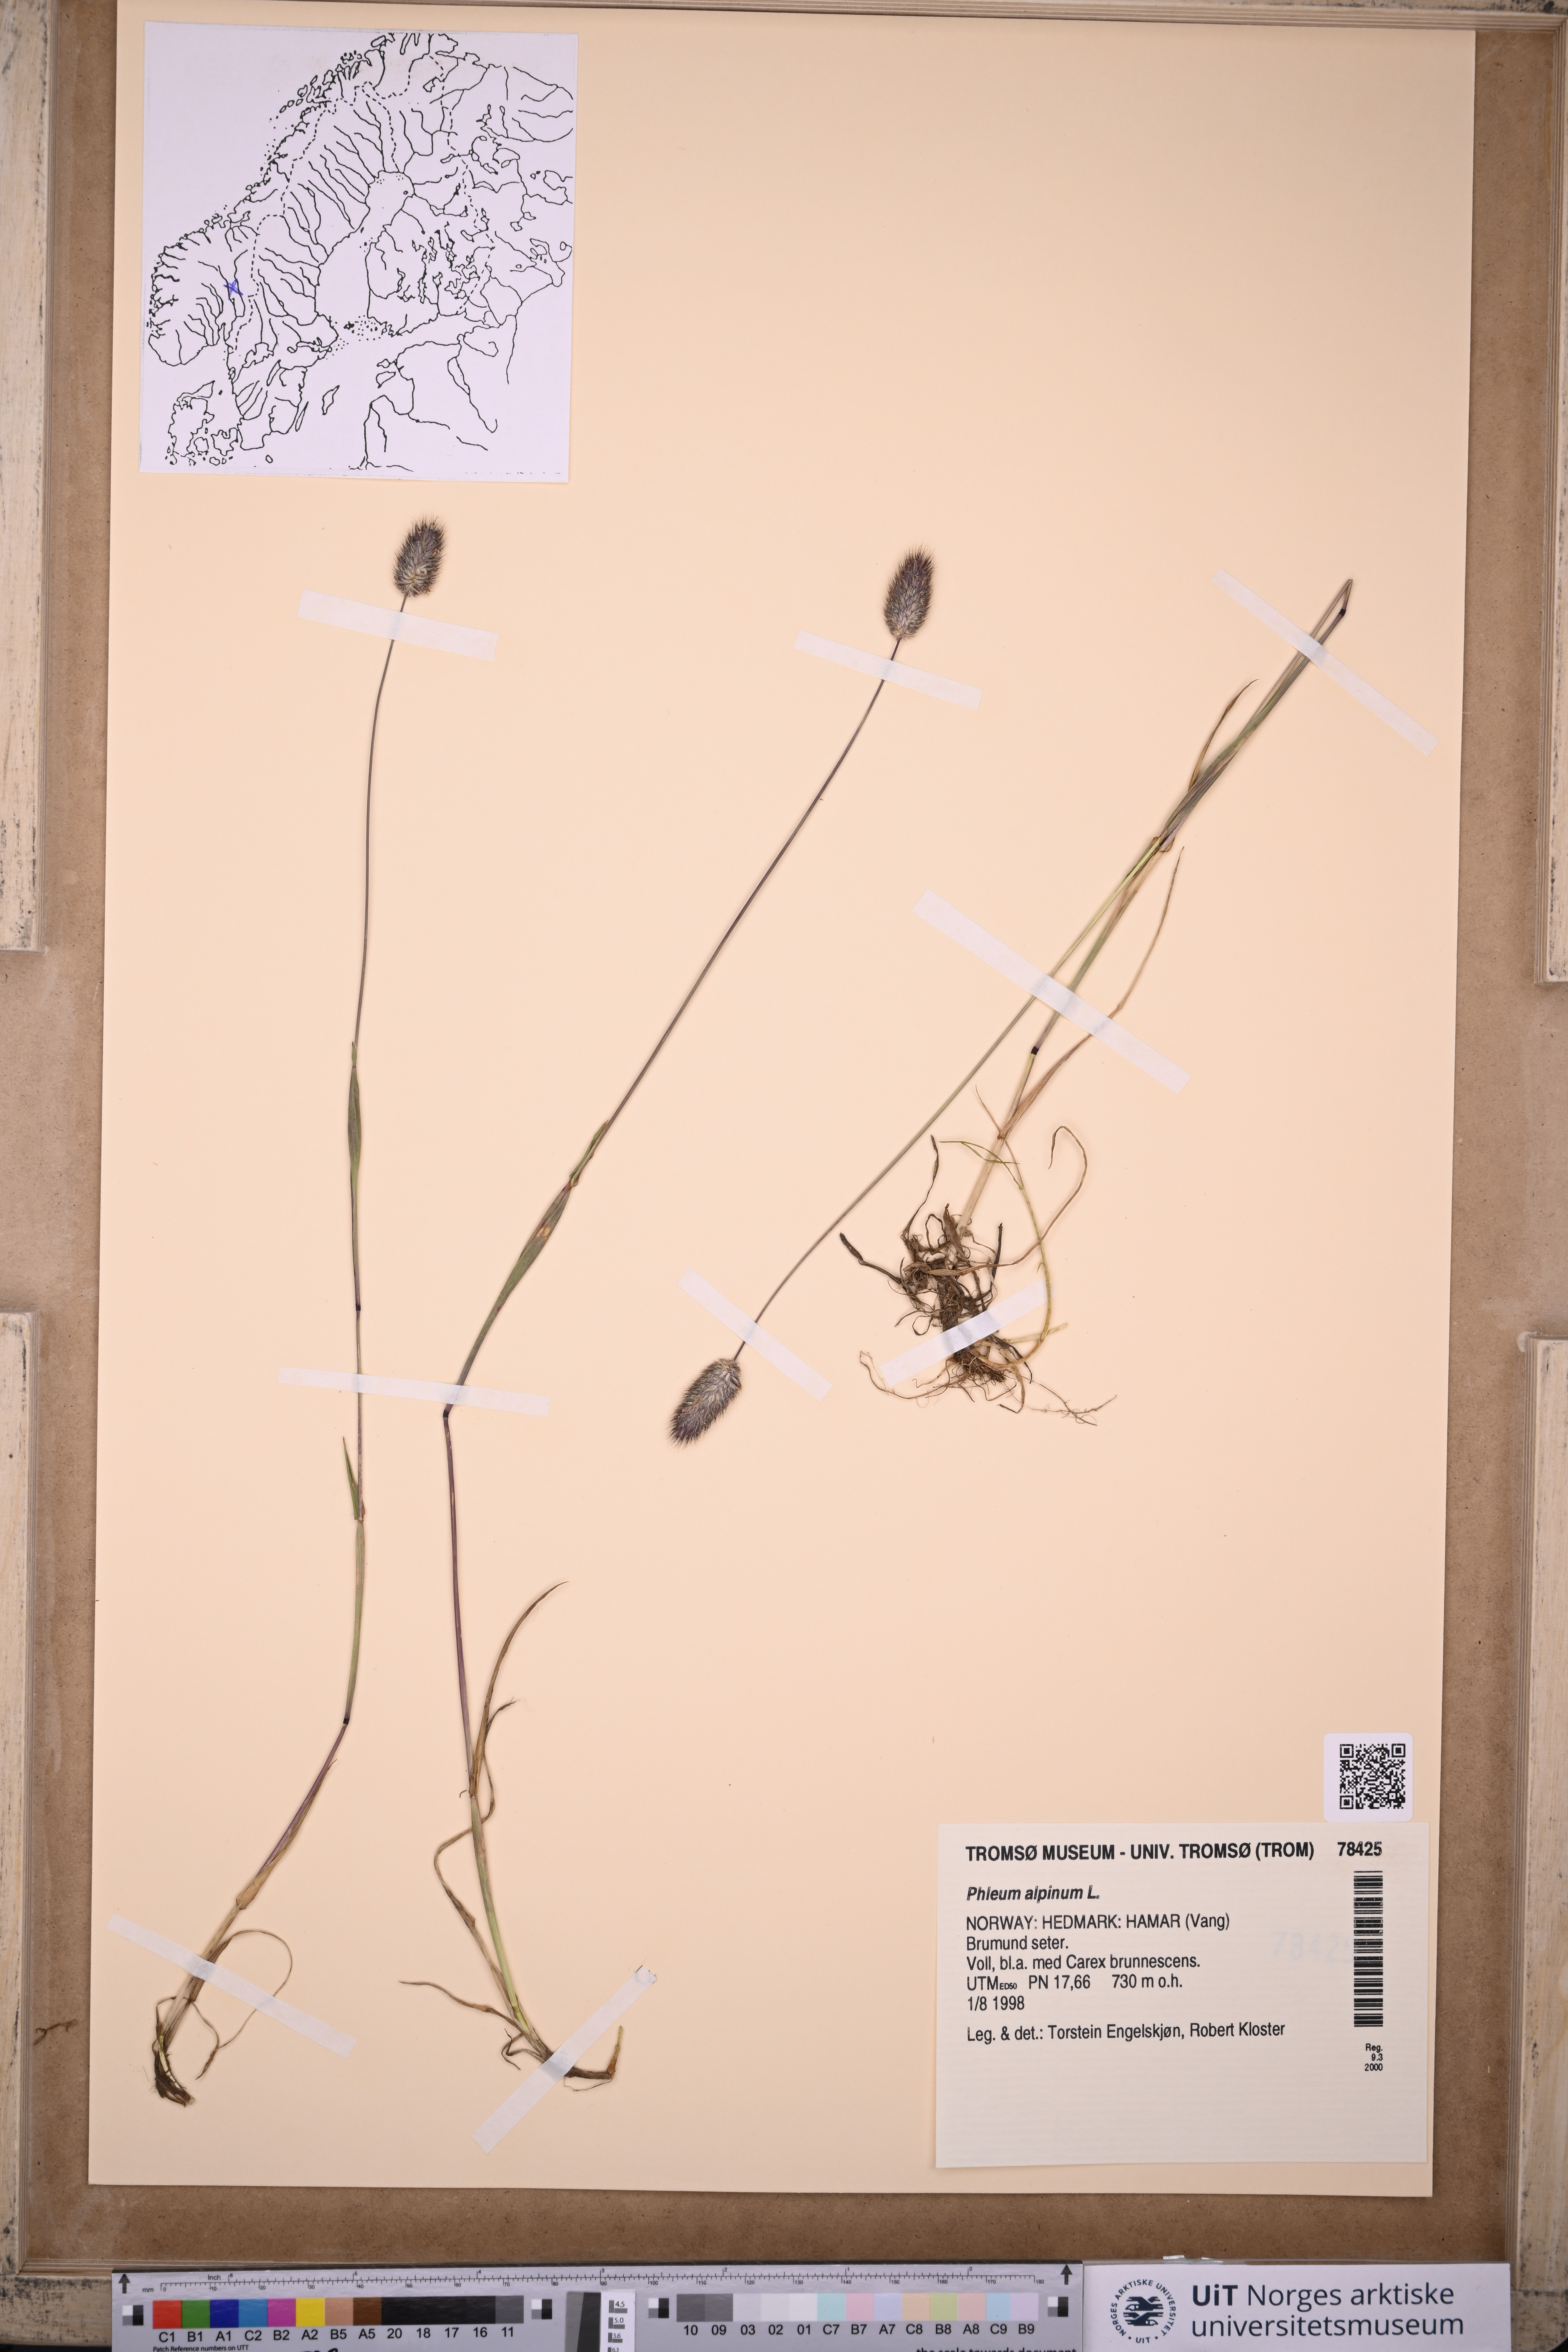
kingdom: Plantae
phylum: Tracheophyta
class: Liliopsida
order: Poales
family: Poaceae
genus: Phleum
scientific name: Phleum alpinum
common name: Alpine cat's-tail
